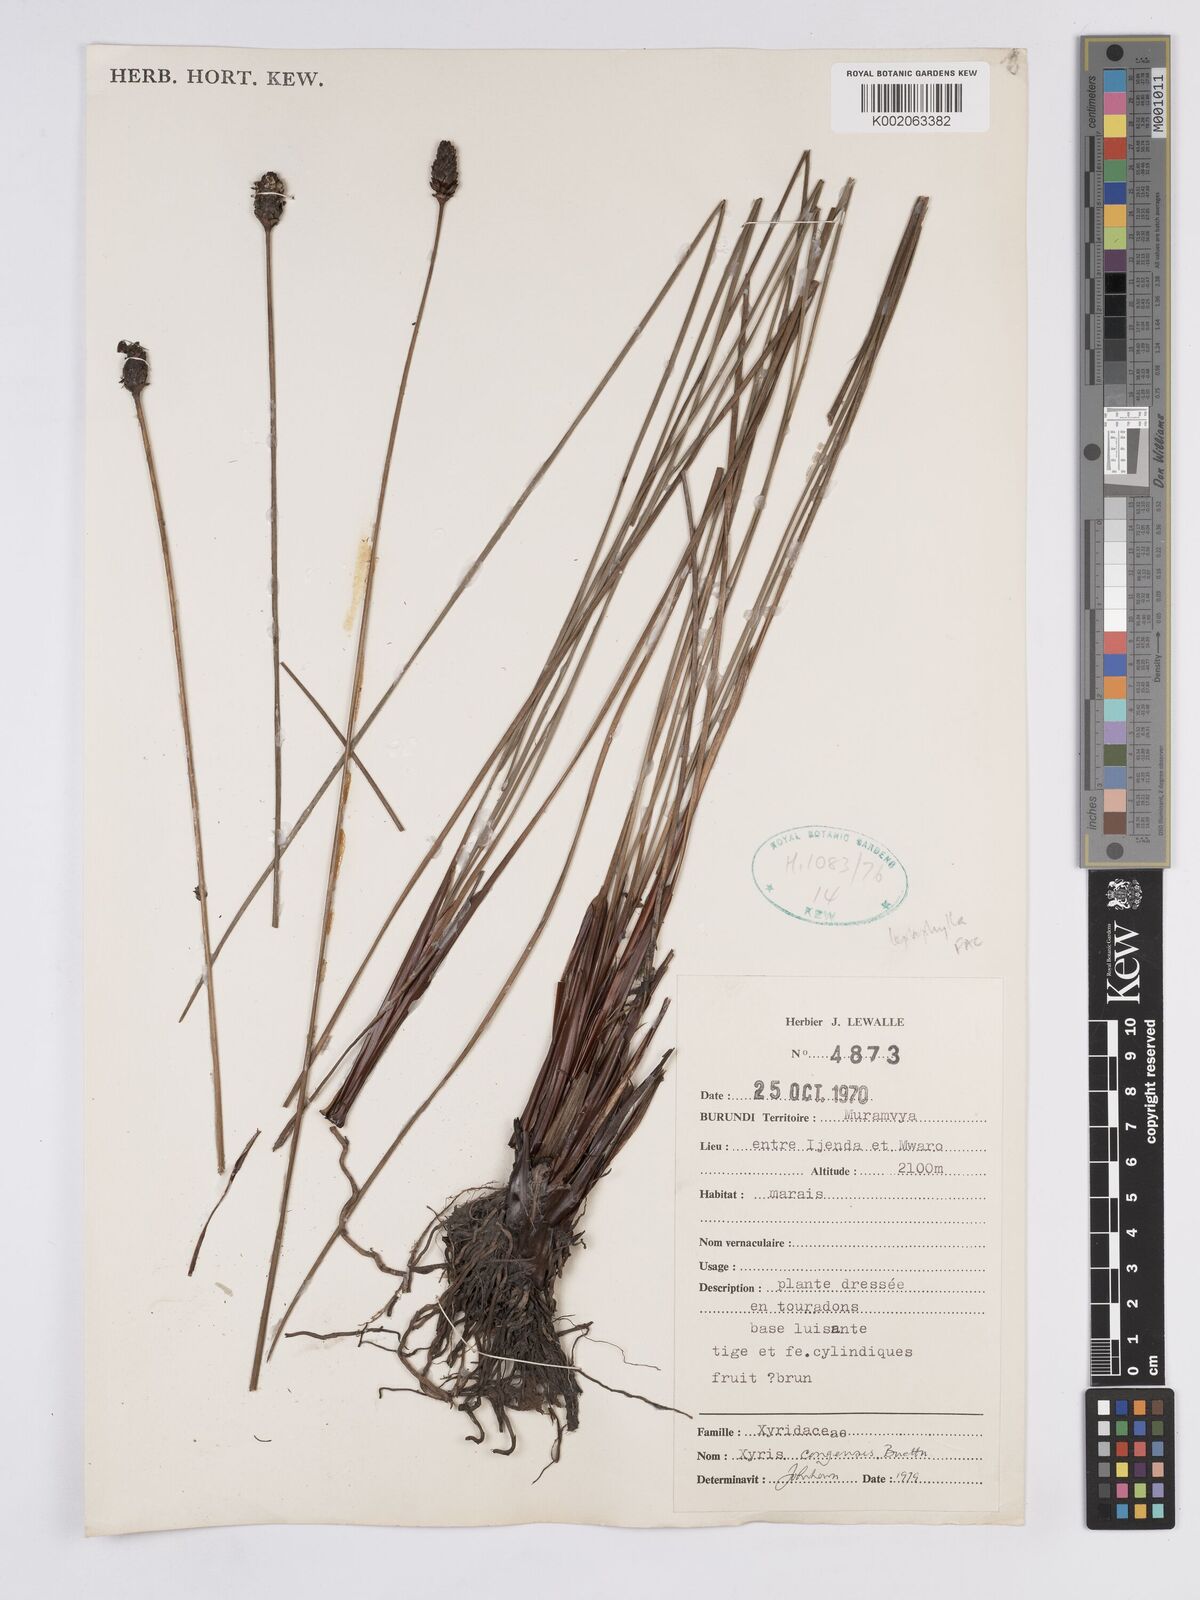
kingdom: Plantae
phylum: Tracheophyta
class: Liliopsida
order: Poales
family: Xyridaceae
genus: Xyris
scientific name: Xyris congensis
